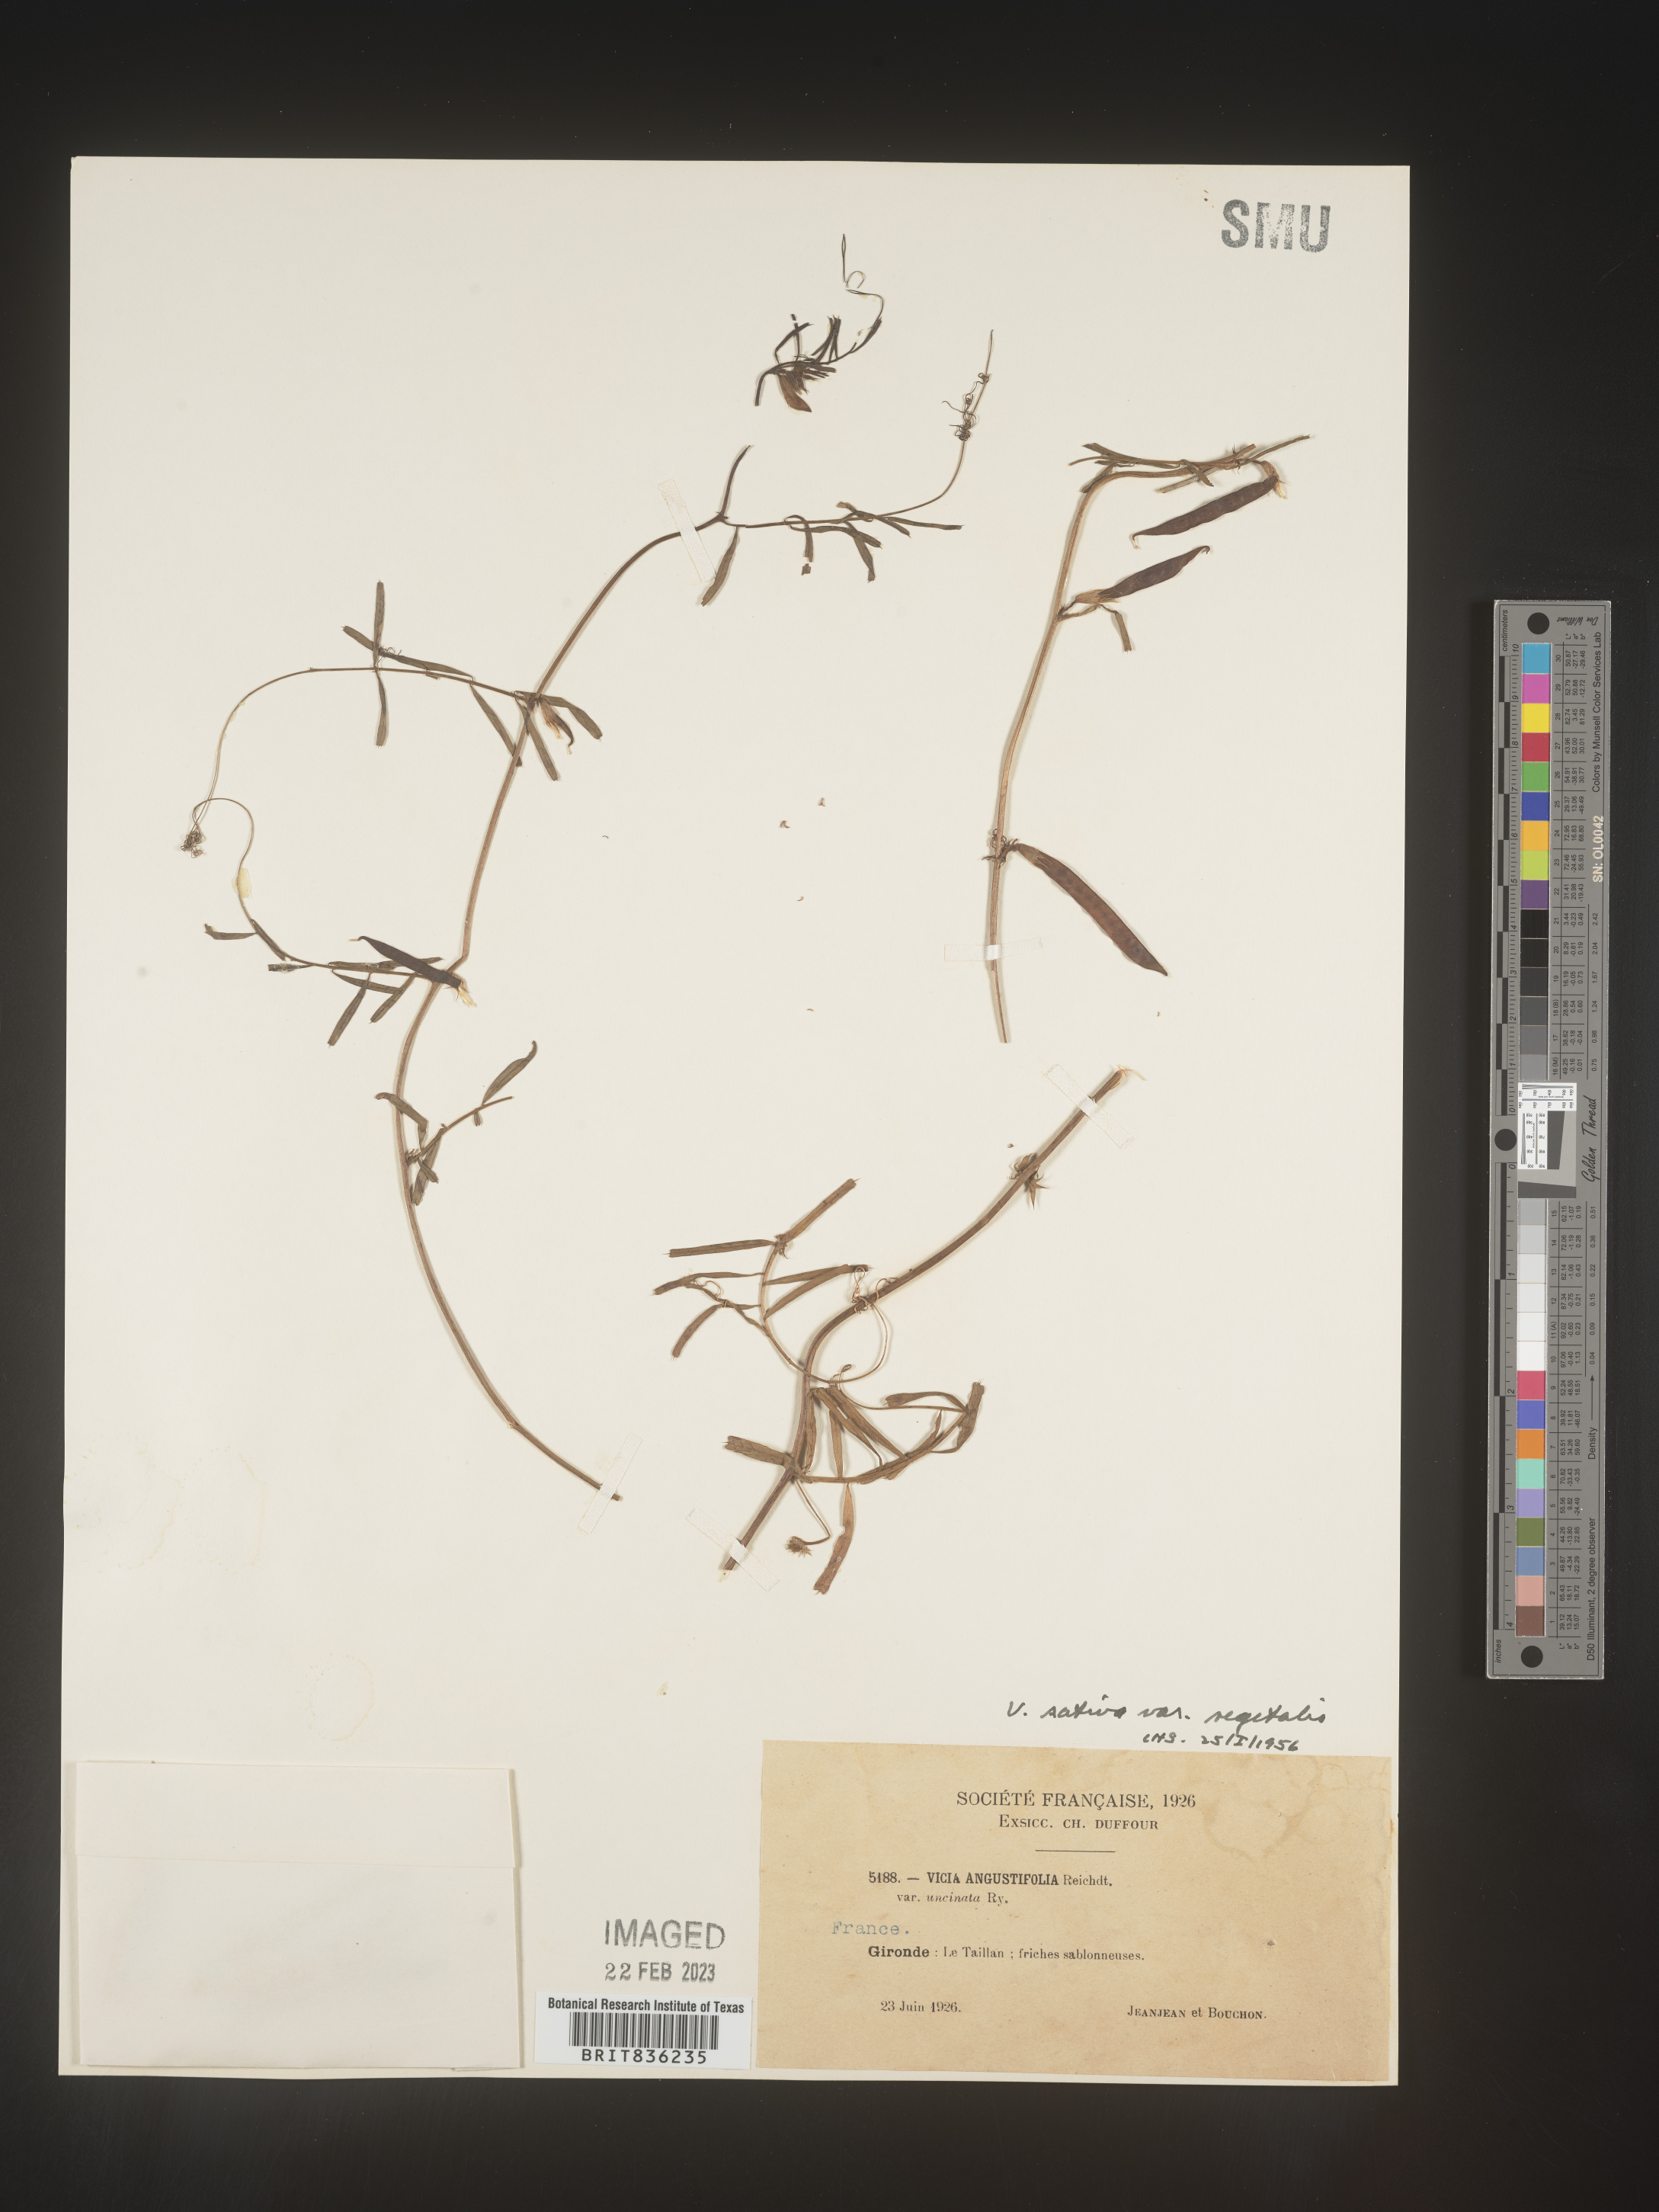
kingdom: Plantae
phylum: Tracheophyta
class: Magnoliopsida
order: Fabales
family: Fabaceae
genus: Vicia
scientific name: Vicia
